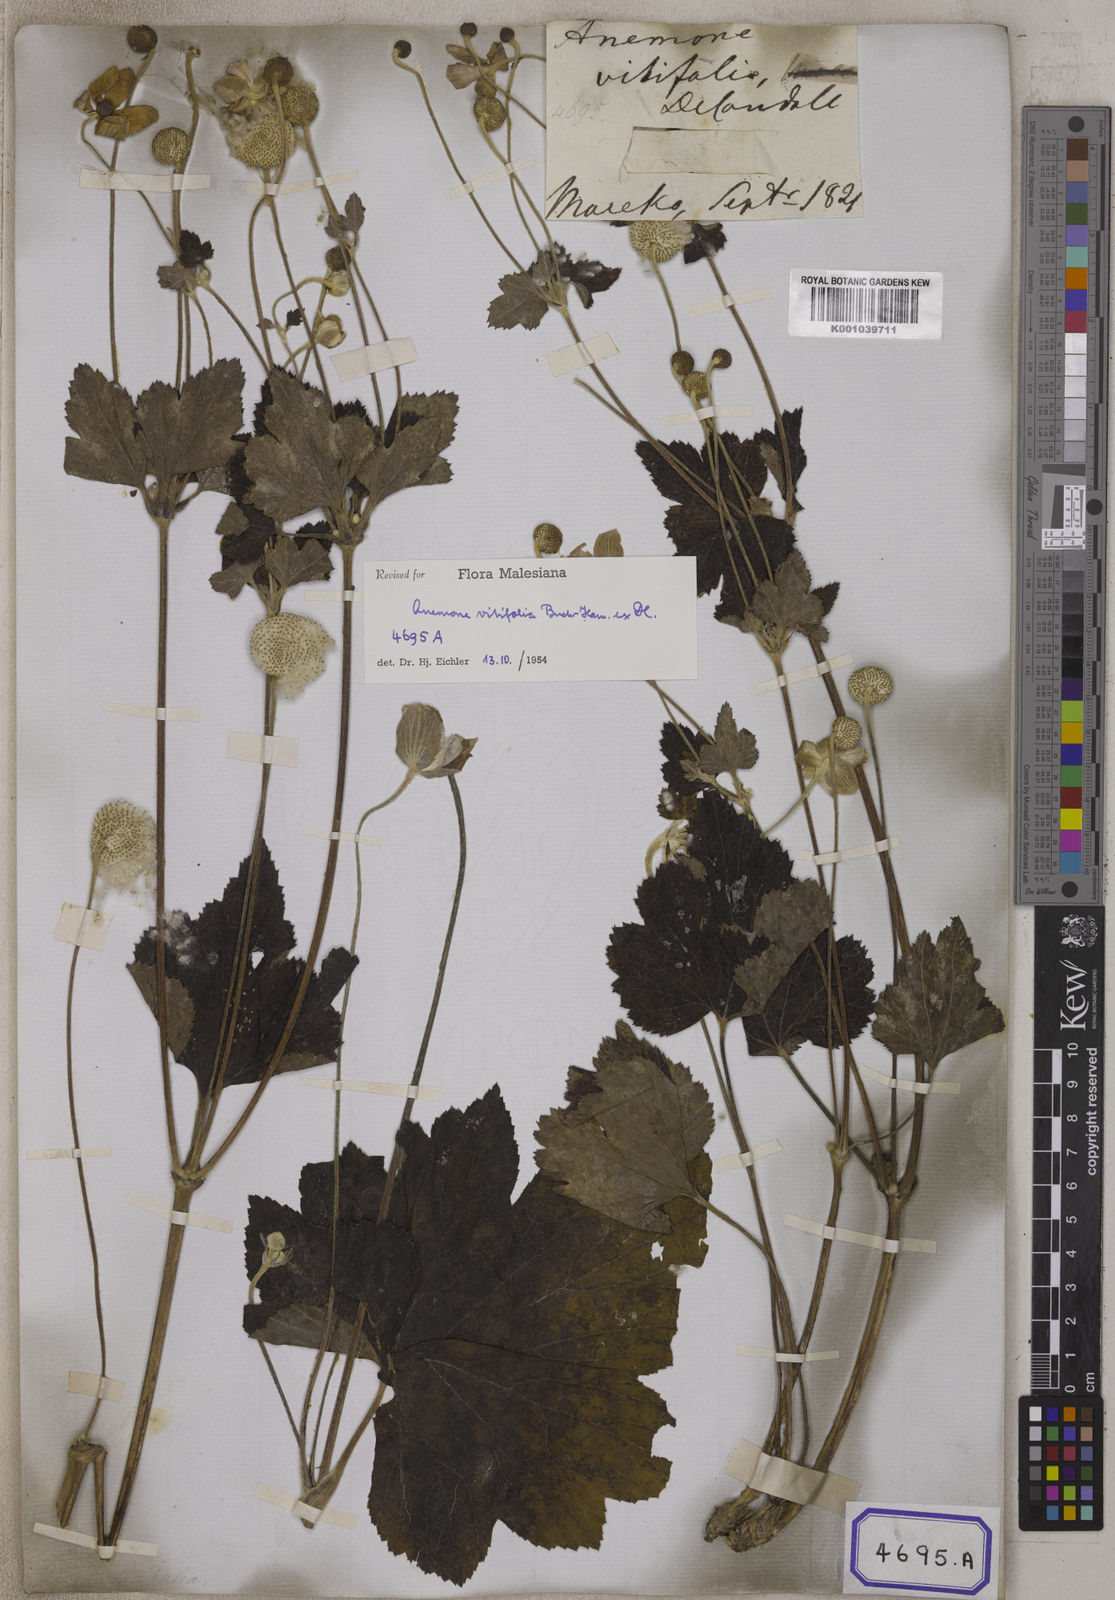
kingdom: Plantae
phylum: Tracheophyta
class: Magnoliopsida
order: Ranunculales
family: Ranunculaceae
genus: Eriocapitella
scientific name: Eriocapitella vitifolia
